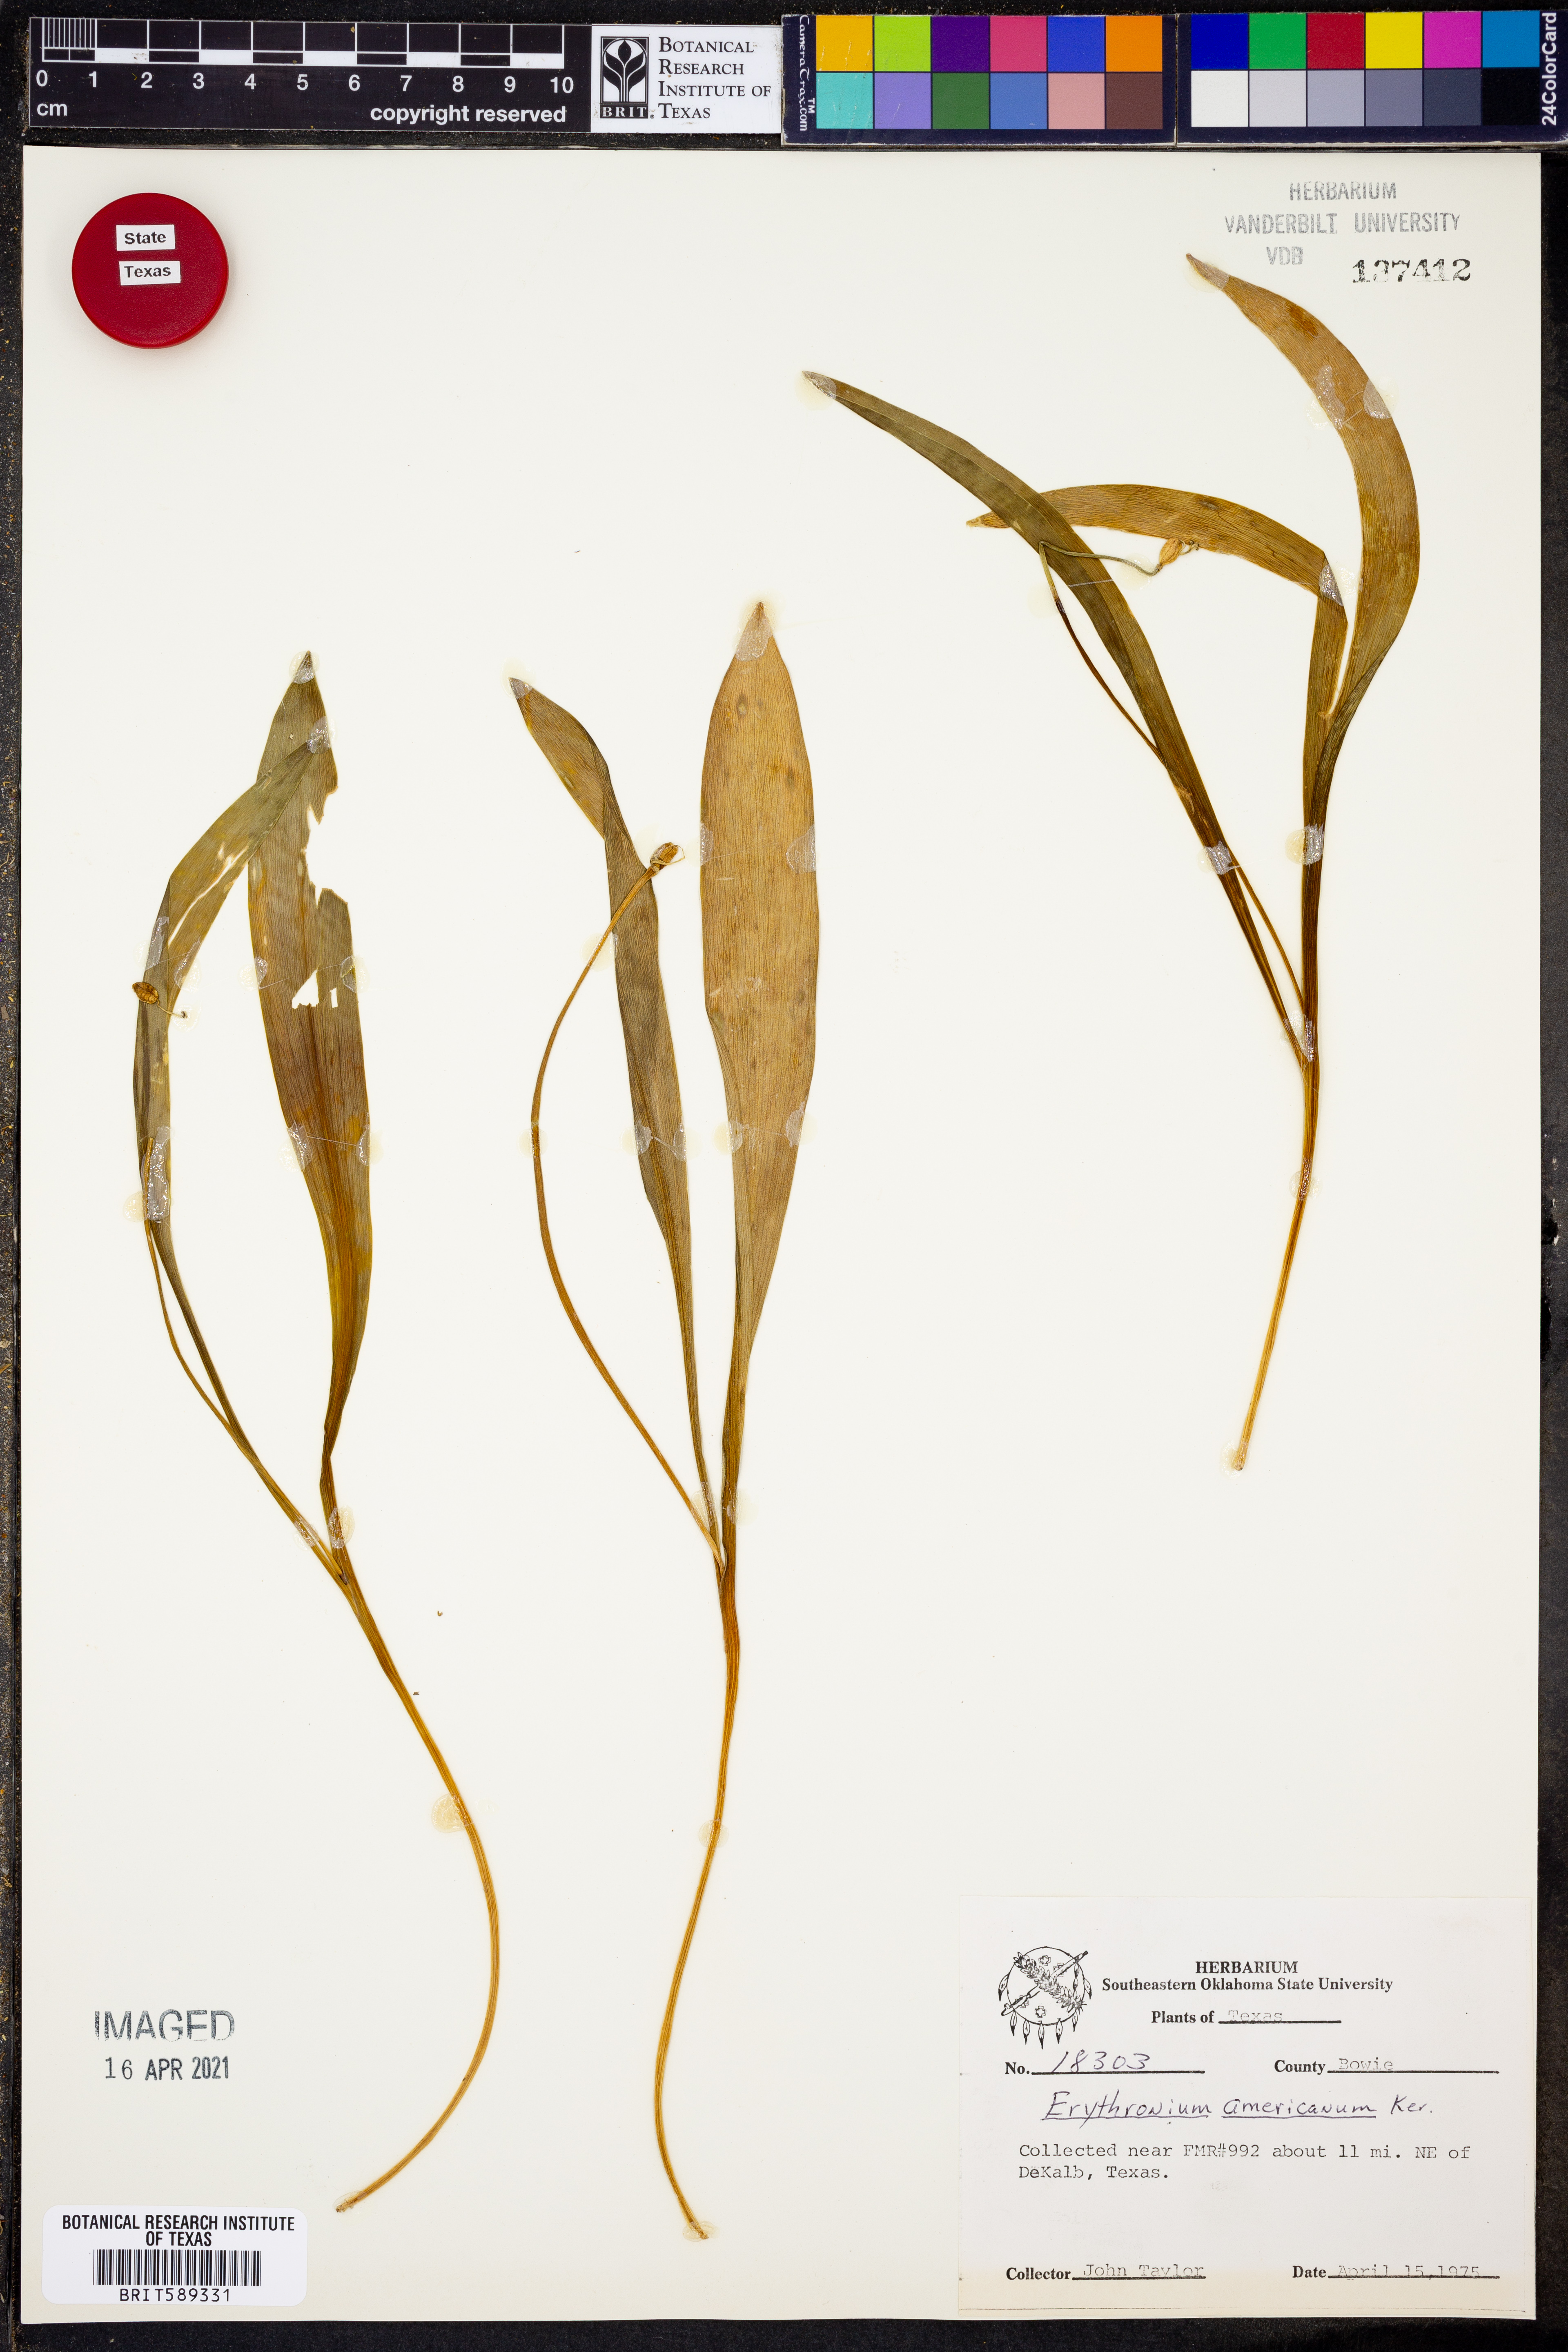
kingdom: Plantae
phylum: Tracheophyta
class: Liliopsida
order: Liliales
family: Liliaceae
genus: Erythronium
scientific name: Erythronium americanum
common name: Yellow adder's-tongue
